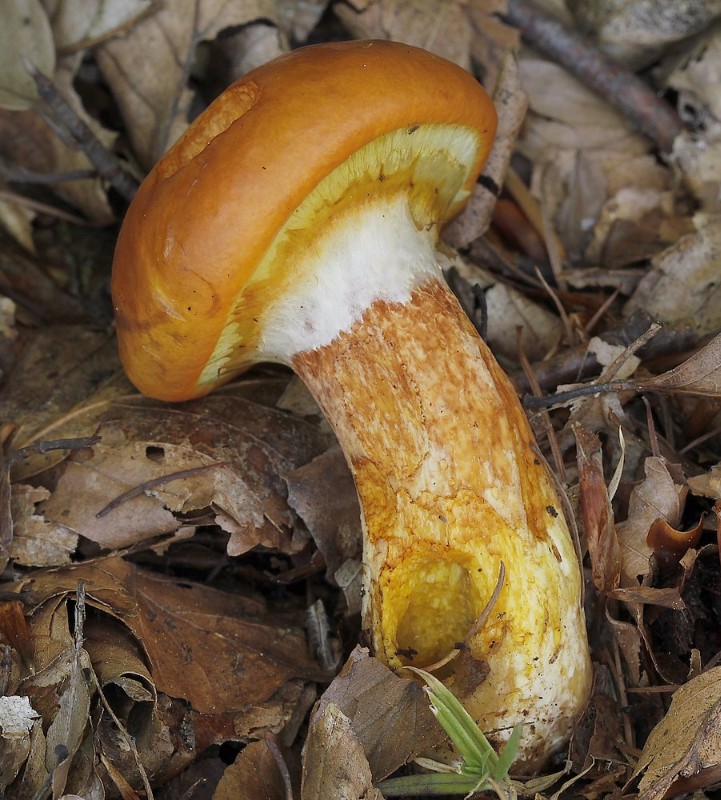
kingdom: Fungi
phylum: Basidiomycota
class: Agaricomycetes
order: Boletales
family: Suillaceae
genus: Suillus
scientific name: Suillus grevillei
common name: lærke-slimrørhat
